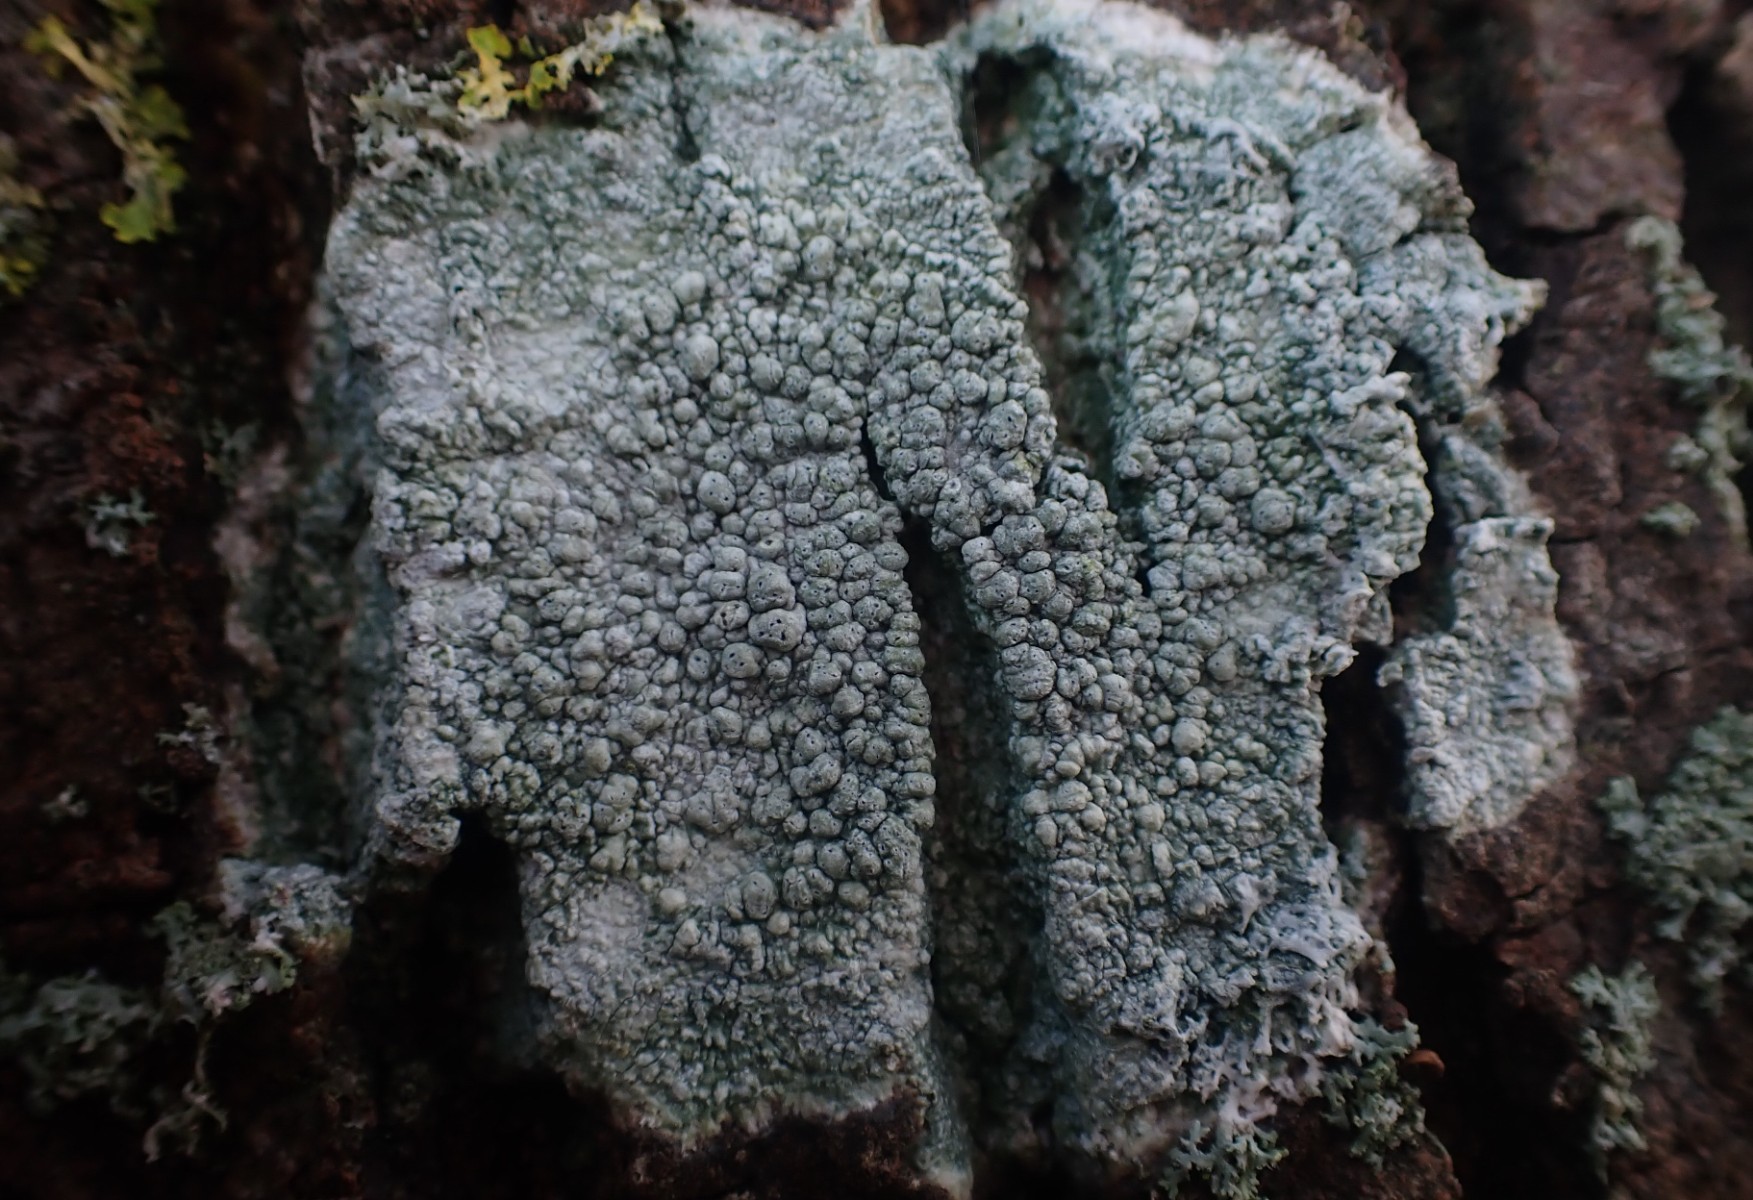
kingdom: Fungi
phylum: Ascomycota
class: Lecanoromycetes
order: Pertusariales
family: Pertusariaceae
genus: Pertusaria
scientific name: Pertusaria pertusa
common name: almindelig prikvortelav
